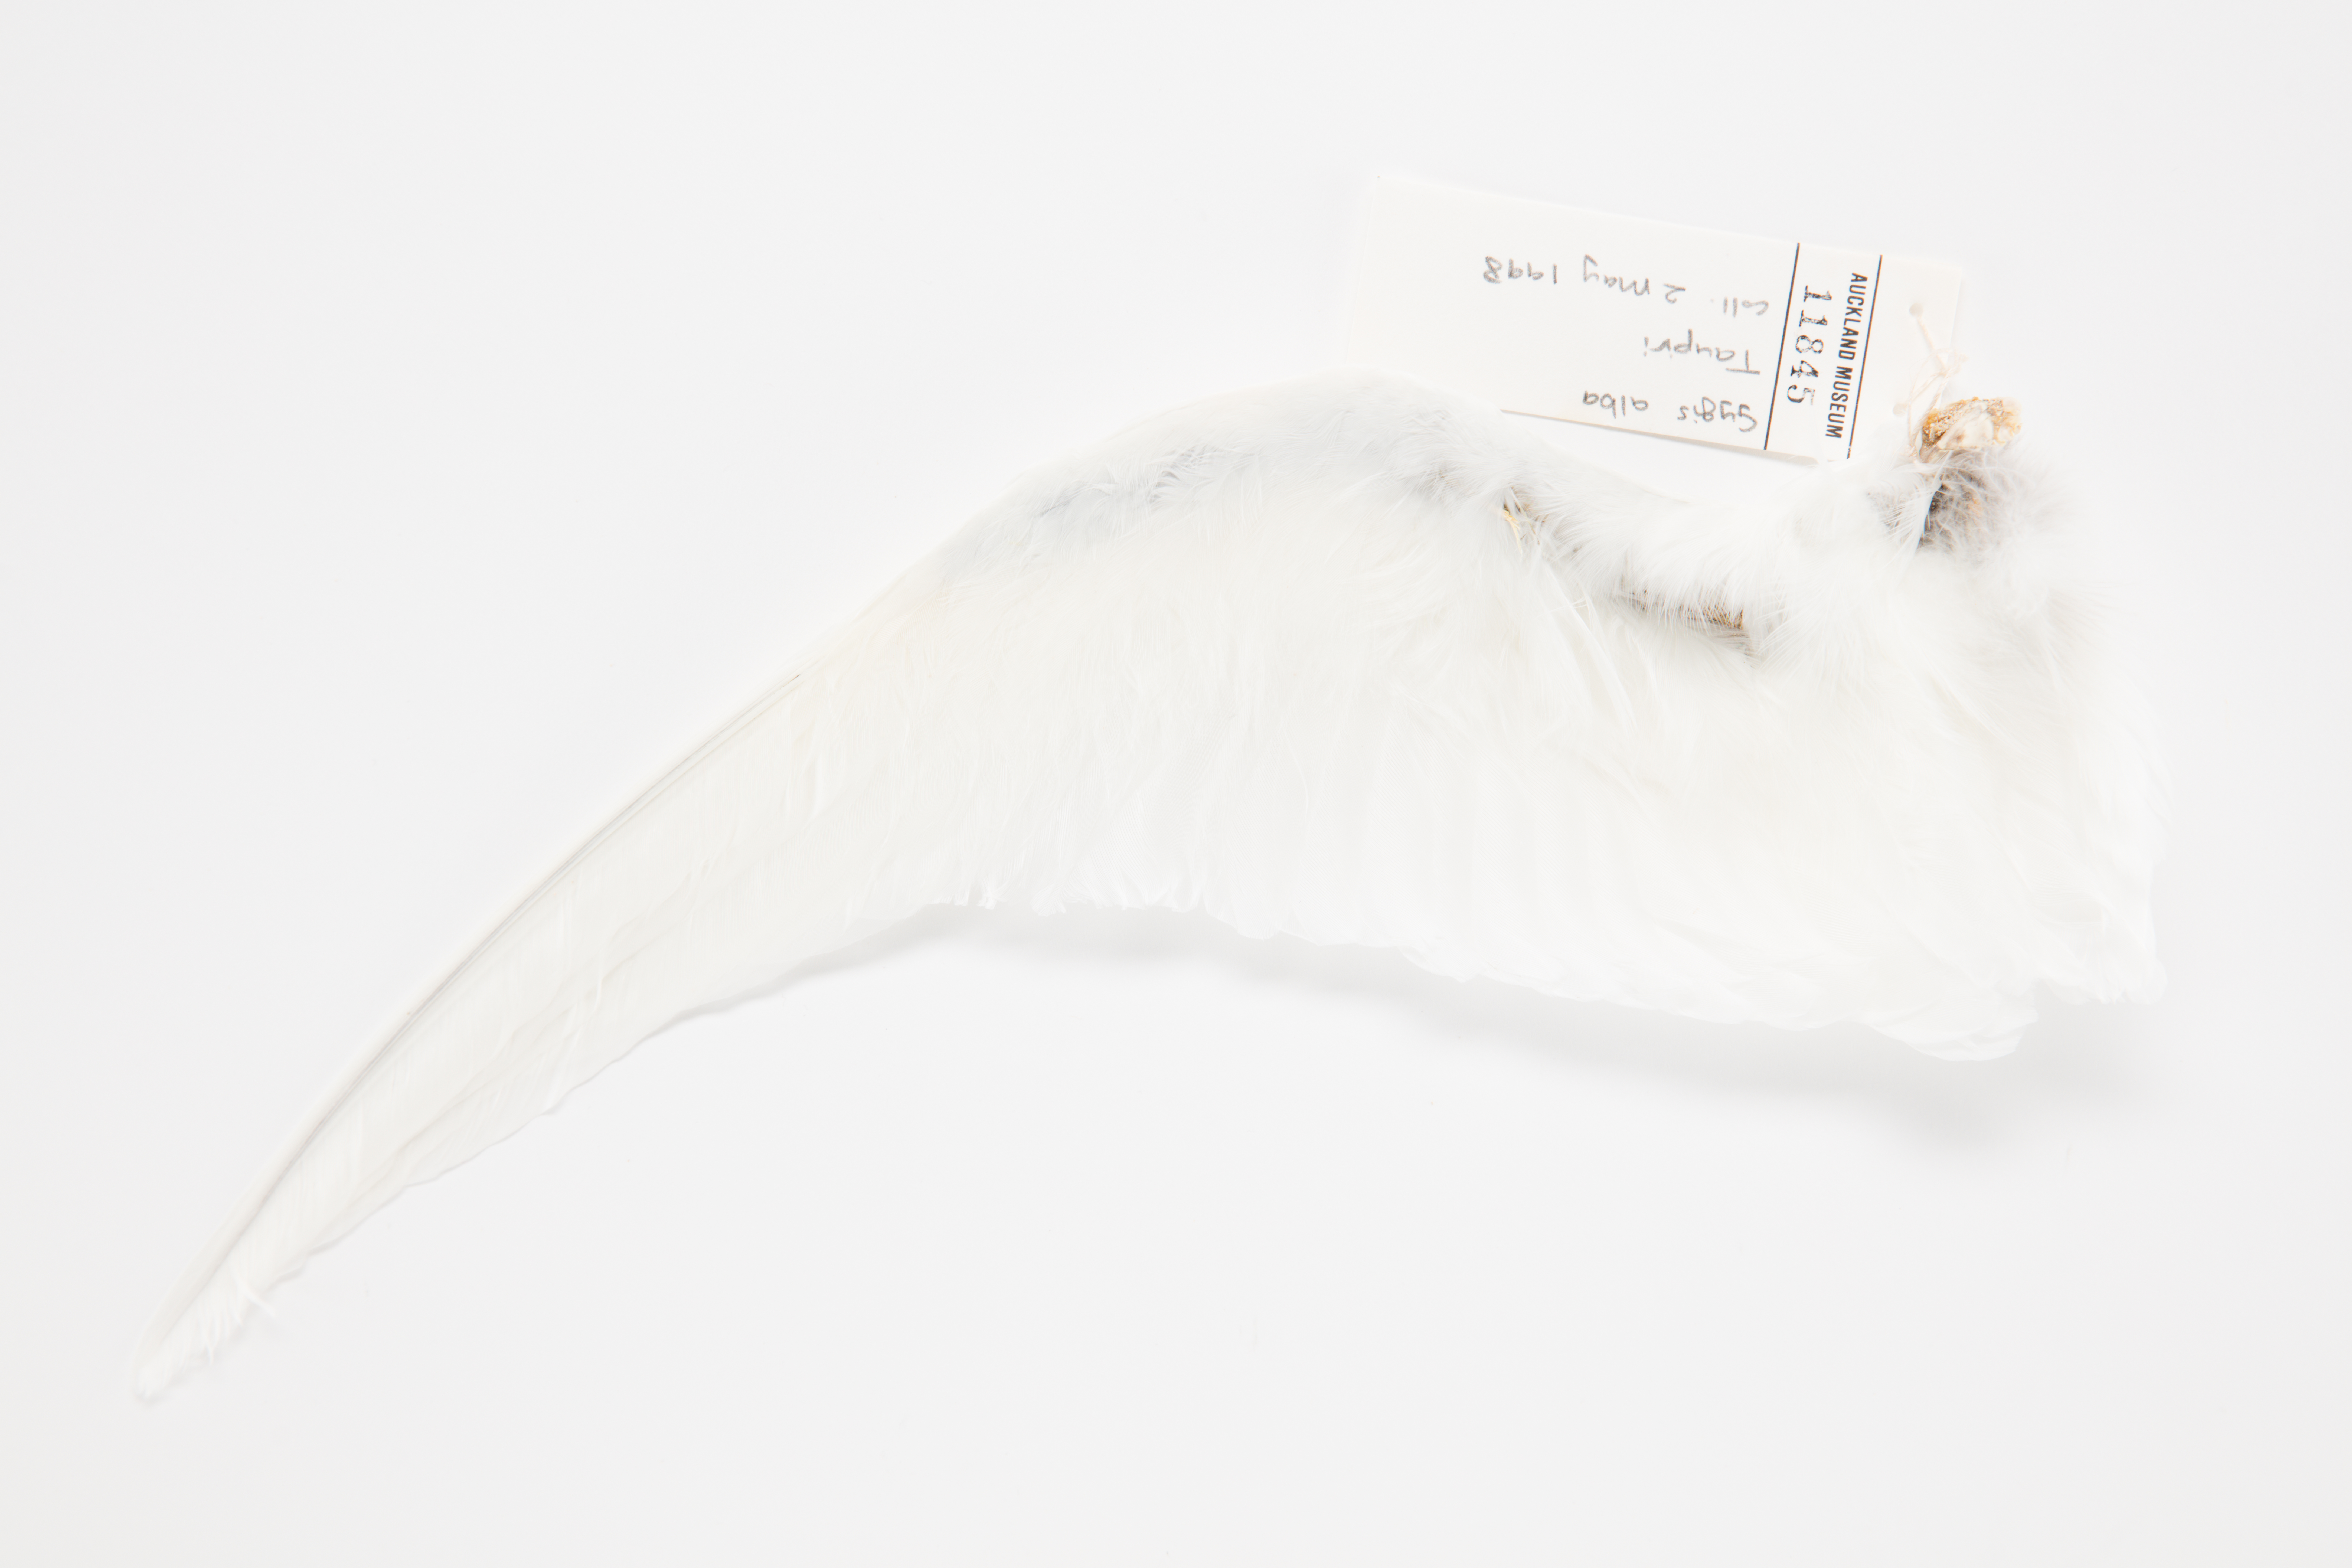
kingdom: Animalia
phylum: Chordata
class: Aves
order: Charadriiformes
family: Laridae
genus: Gygis
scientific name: Gygis alba
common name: White tern
